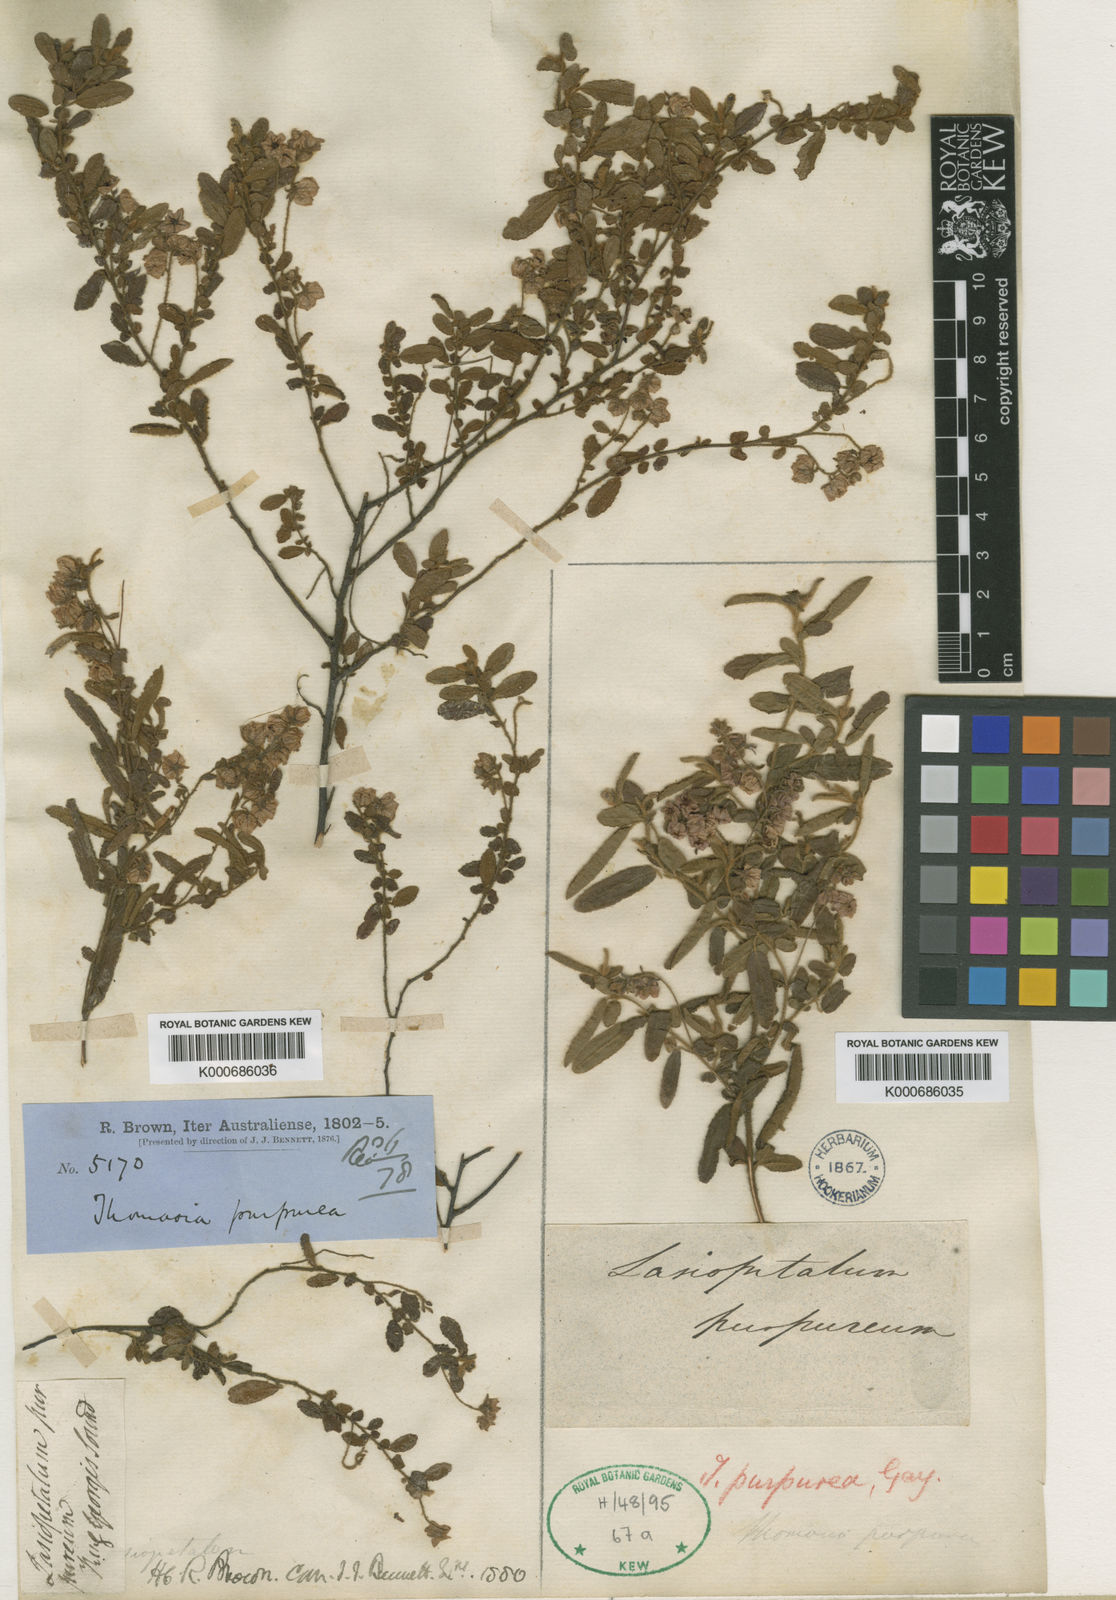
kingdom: Plantae
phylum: Tracheophyta
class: Magnoliopsida
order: Malvales
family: Malvaceae
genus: Thomasia
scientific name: Thomasia purpurea
